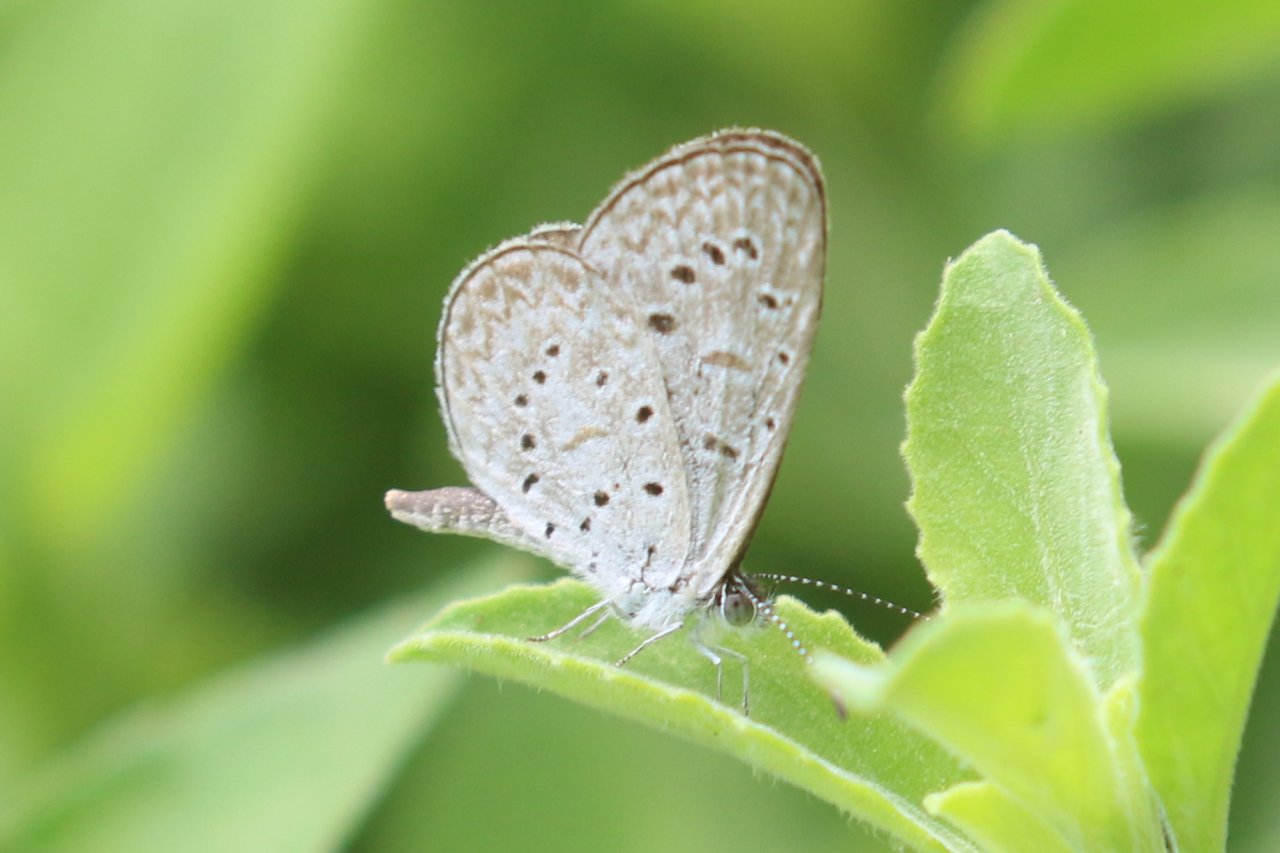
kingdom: Animalia
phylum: Arthropoda
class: Insecta
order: Lepidoptera
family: Lycaenidae
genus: Lycaena
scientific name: Lycaena cyna
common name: Cyna Blue
